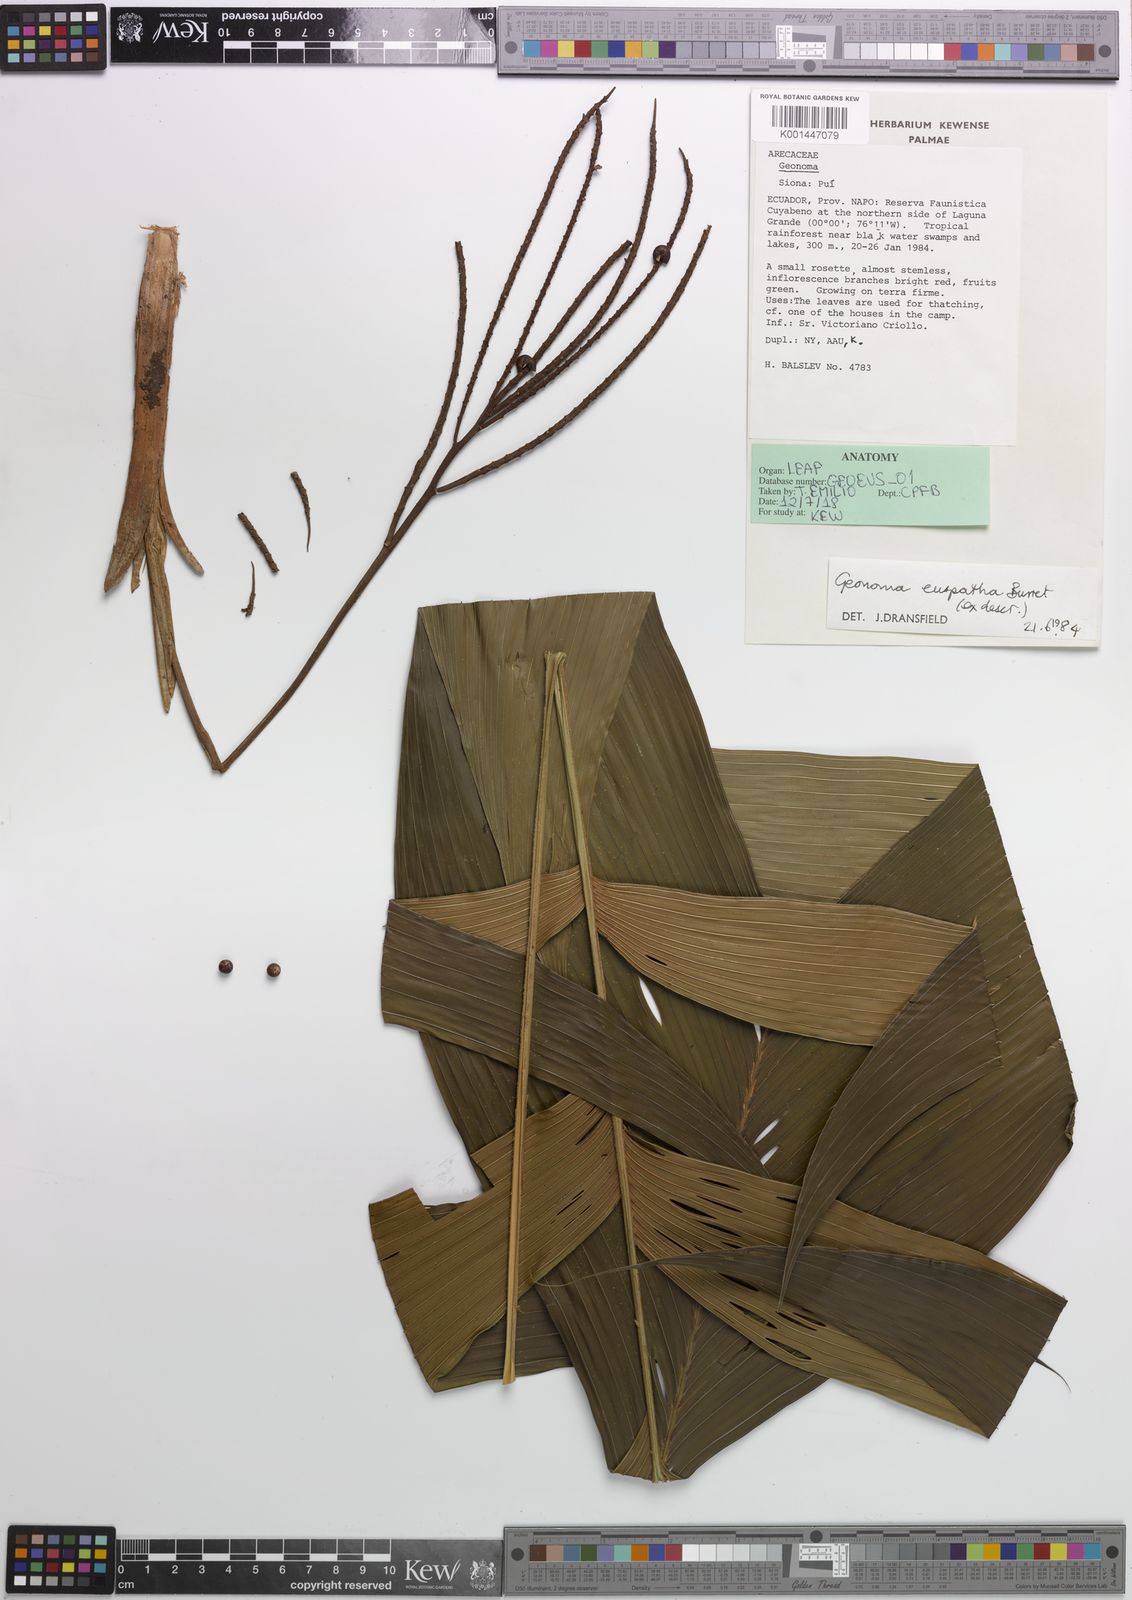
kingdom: Plantae
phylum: Tracheophyta
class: Liliopsida
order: Arecales
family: Arecaceae
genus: Geonoma
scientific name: Geonoma euspatha
